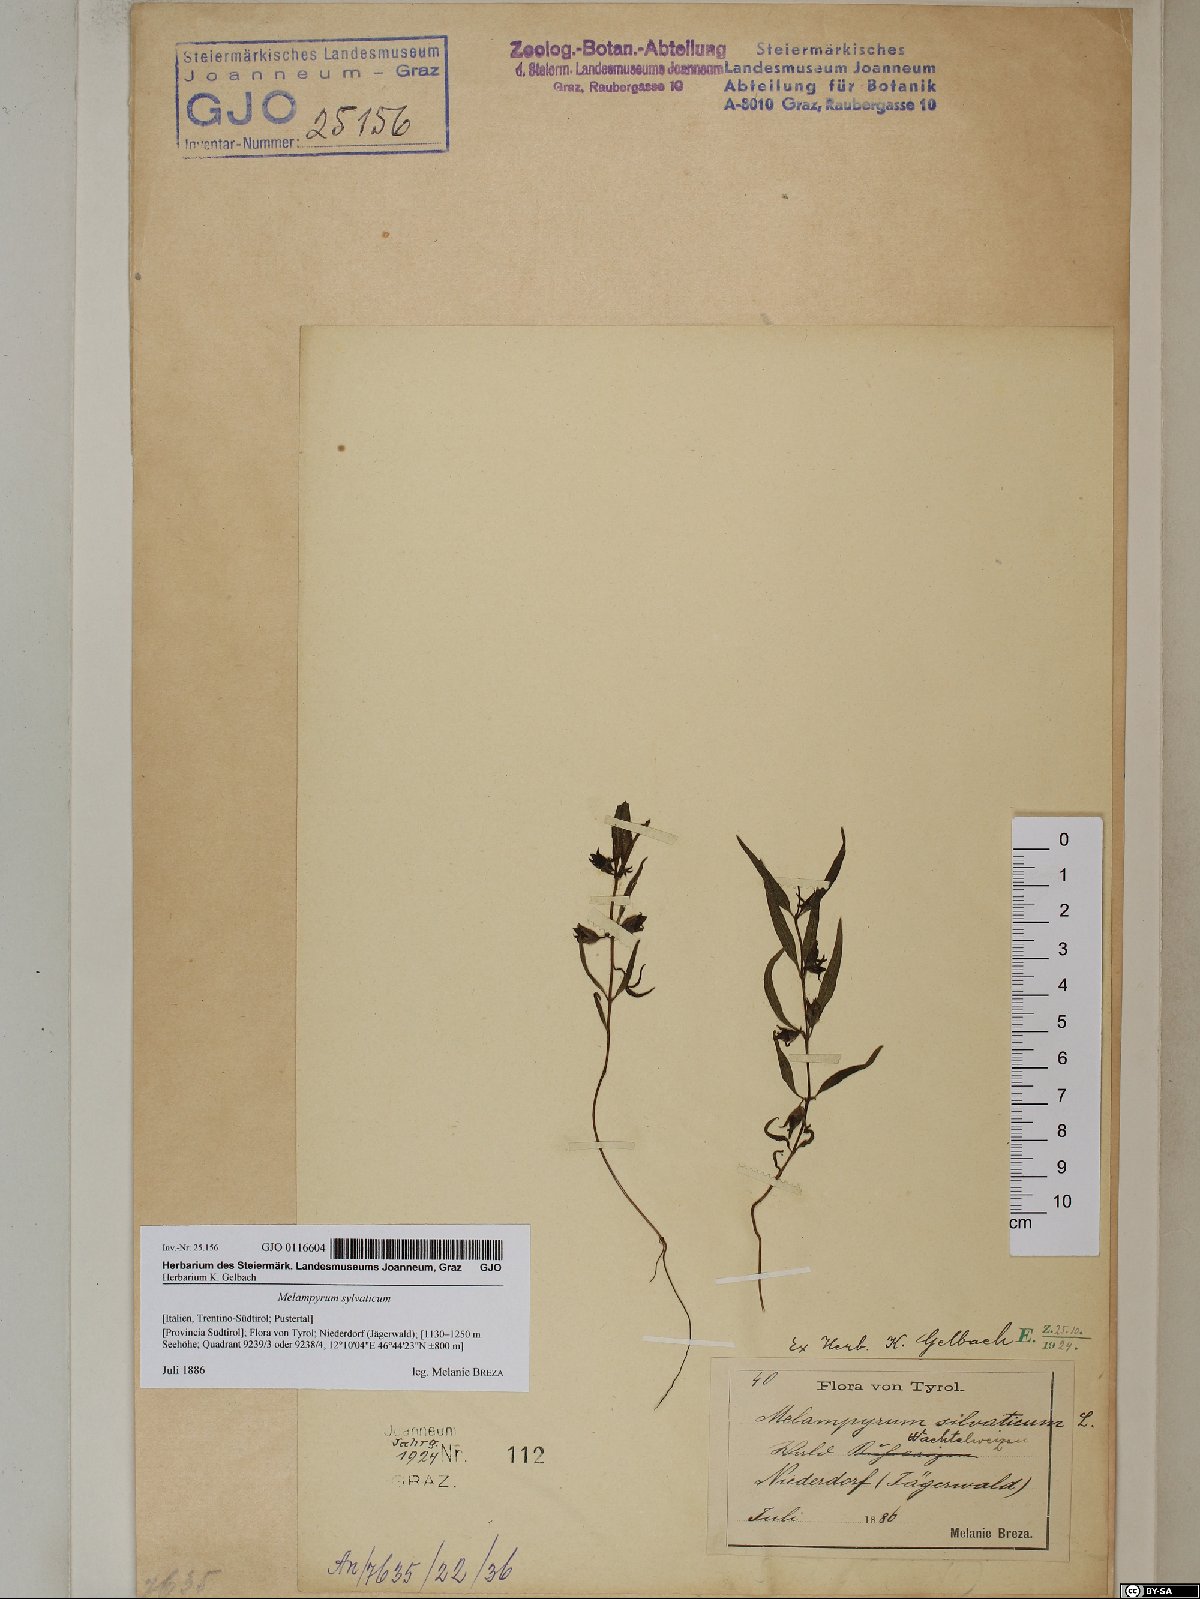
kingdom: Plantae
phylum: Tracheophyta
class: Magnoliopsida
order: Lamiales
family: Orobanchaceae
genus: Melampyrum
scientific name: Melampyrum sylvaticum
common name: Small cow-wheat
